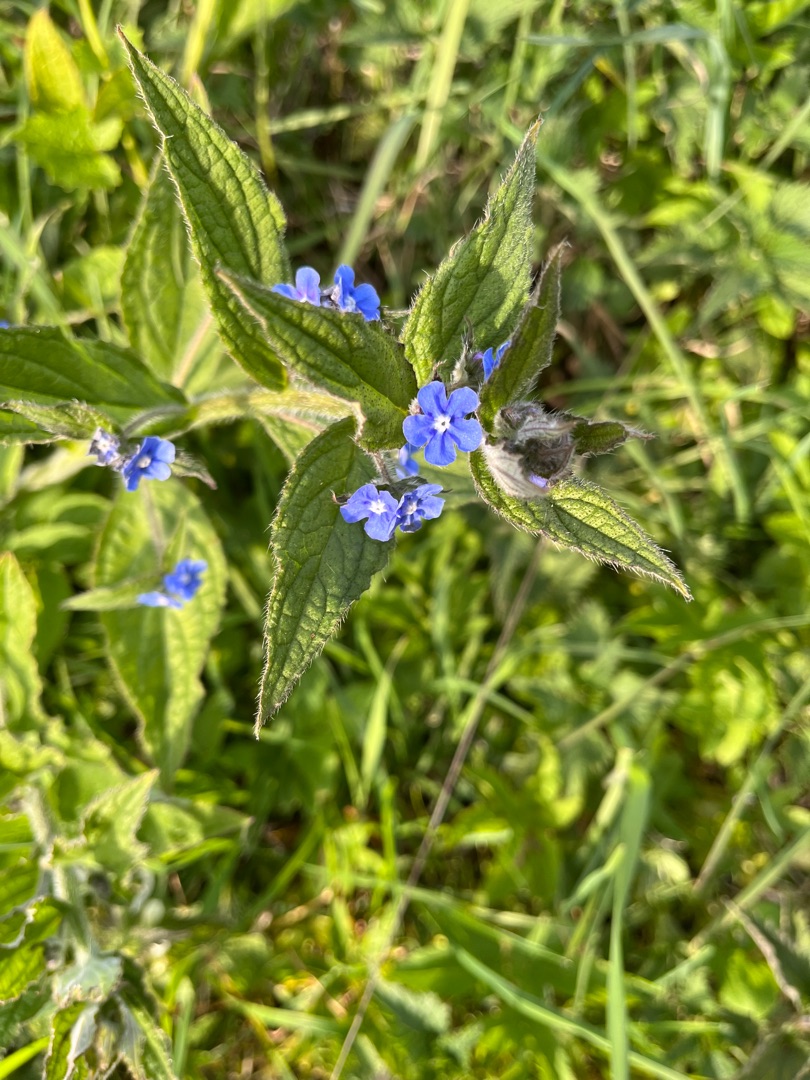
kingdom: Plantae
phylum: Tracheophyta
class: Magnoliopsida
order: Boraginales
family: Boraginaceae
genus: Pentaglottis
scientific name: Pentaglottis sempervirens
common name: Femtunge
